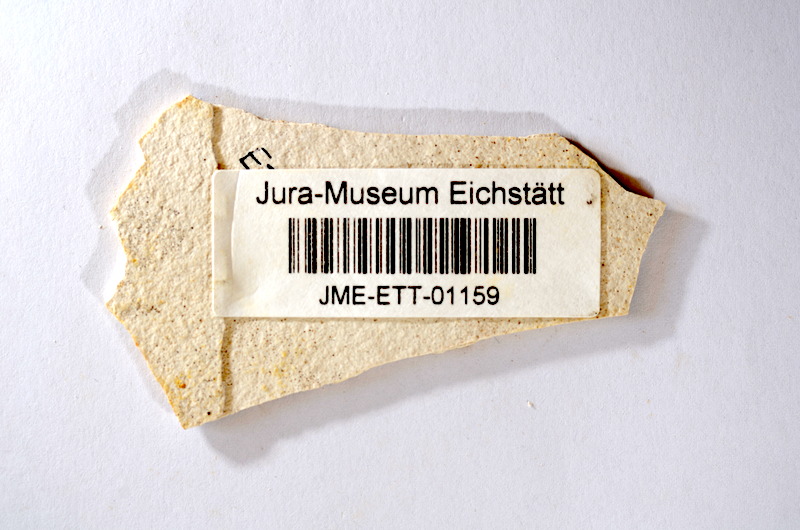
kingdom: Animalia
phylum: Chordata
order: Salmoniformes
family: Orthogonikleithridae
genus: Orthogonikleithrus
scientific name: Orthogonikleithrus hoelli
